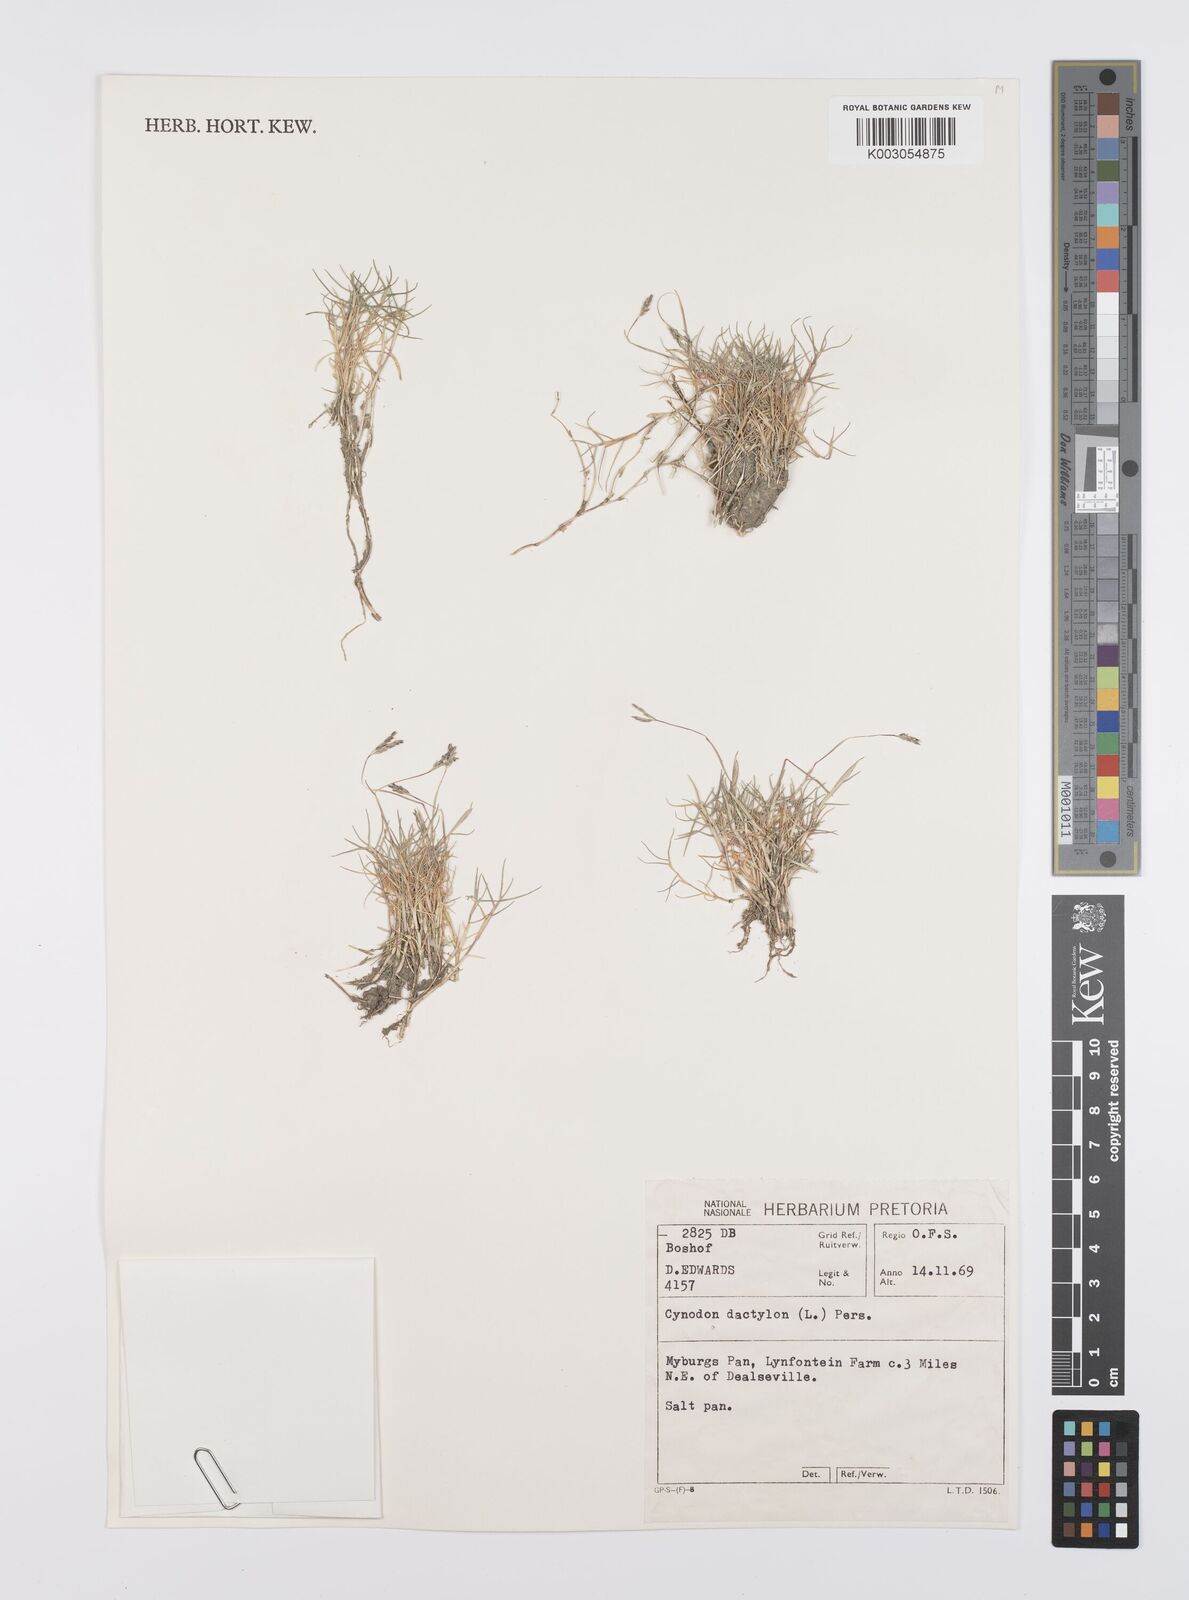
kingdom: Plantae
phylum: Tracheophyta
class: Liliopsida
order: Poales
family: Poaceae
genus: Cynodon
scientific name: Cynodon dactylon
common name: Bermuda grass
